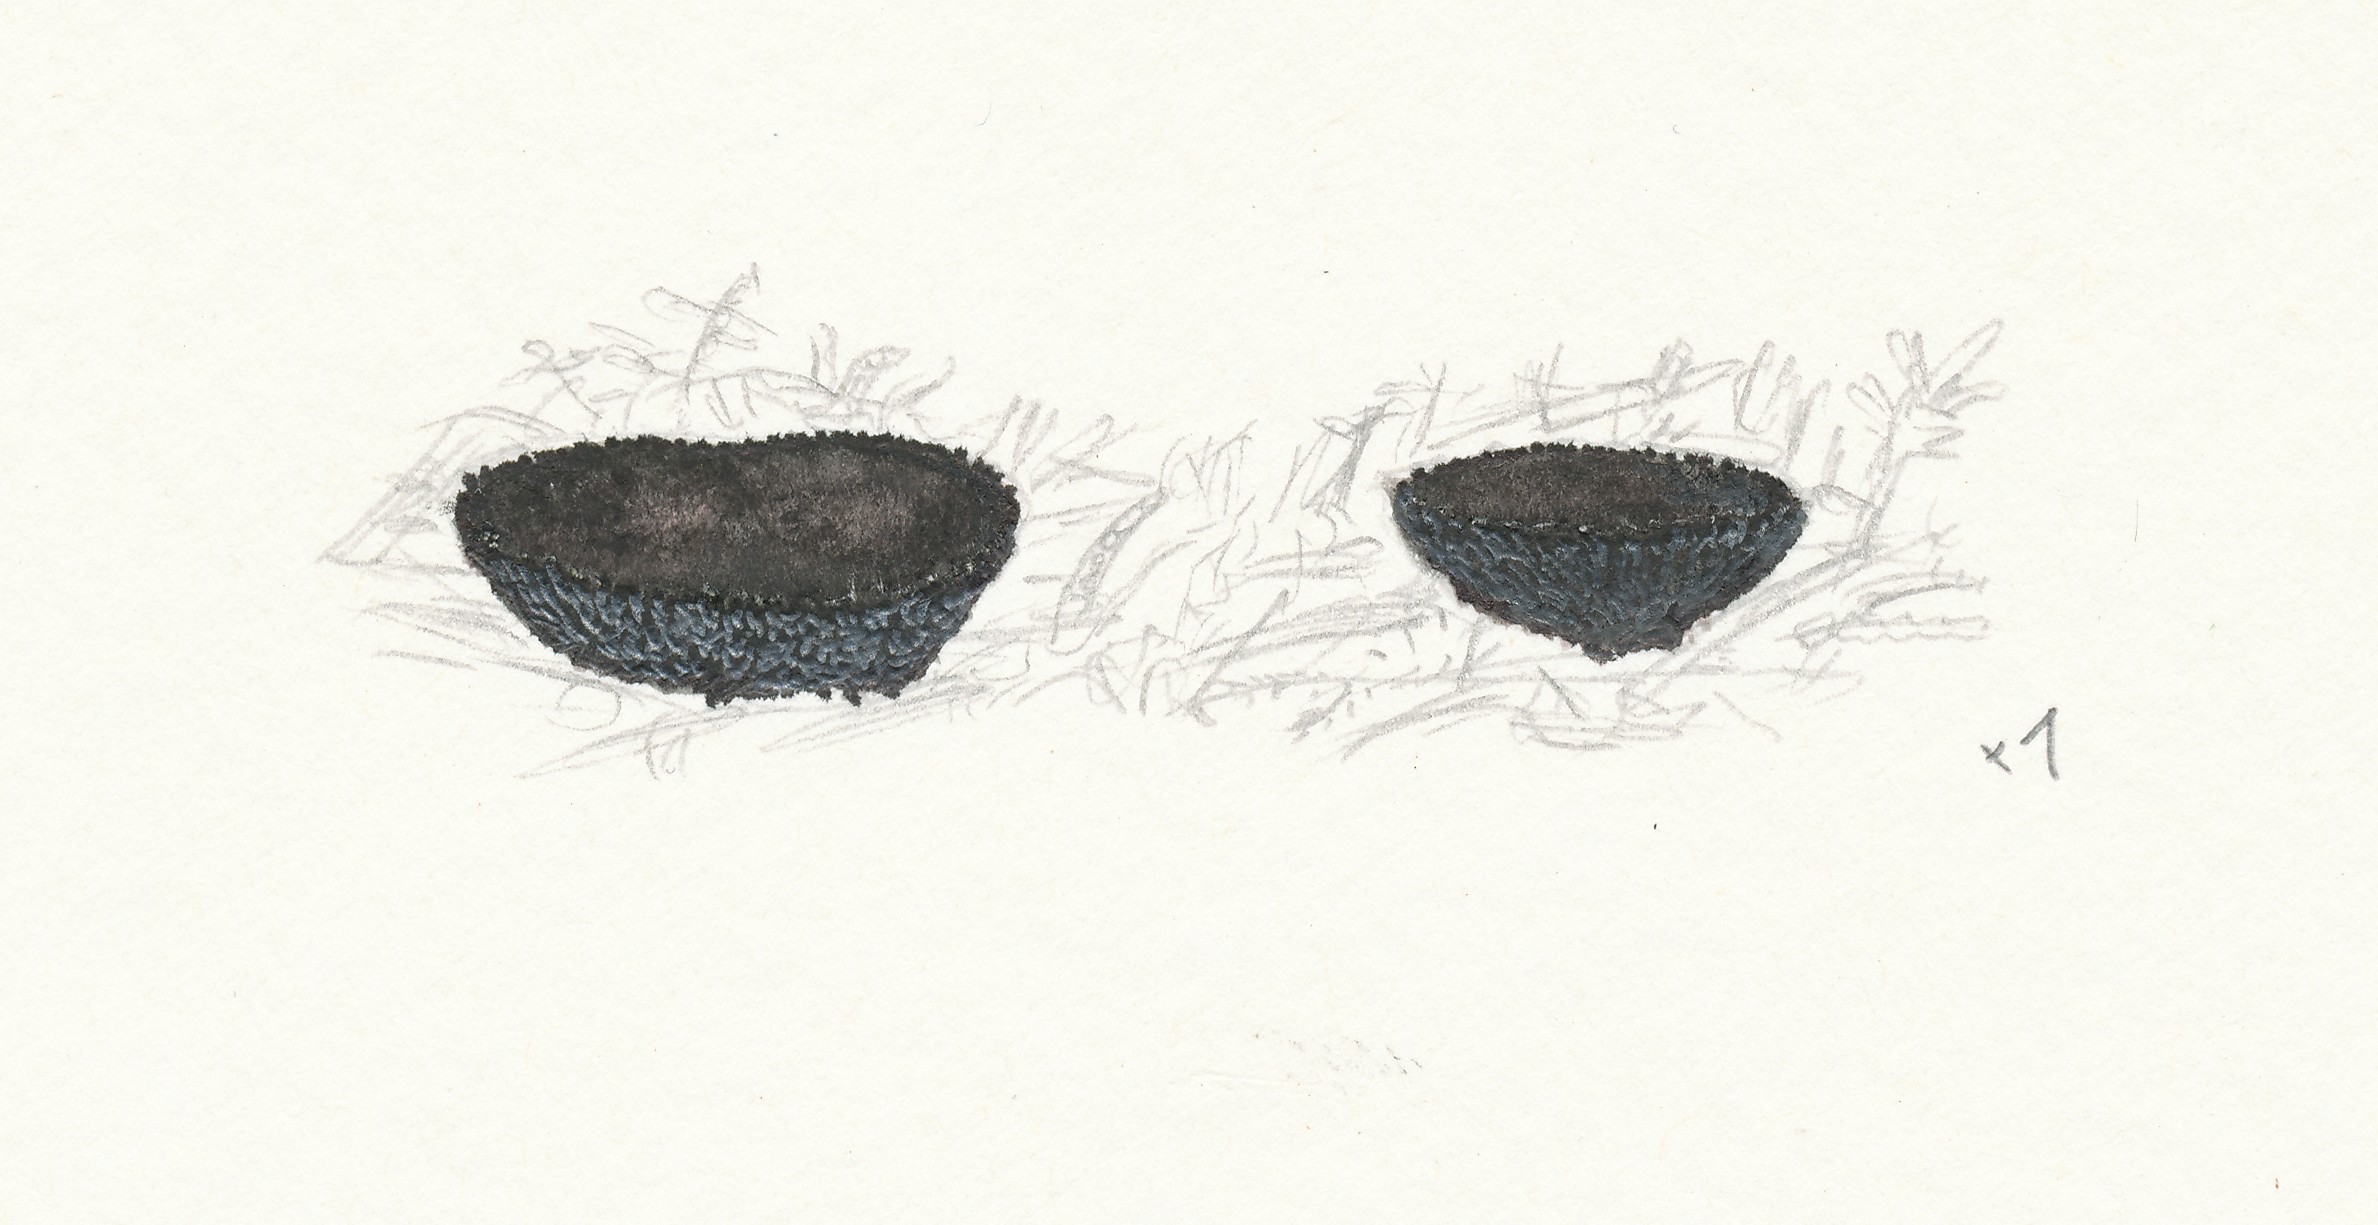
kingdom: Fungi
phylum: Ascomycota
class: Pezizomycetes
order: Pezizales
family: Sarcosomataceae
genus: Pseudoplectania
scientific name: Pseudoplectania nigrella
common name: almindelig sortbæger
